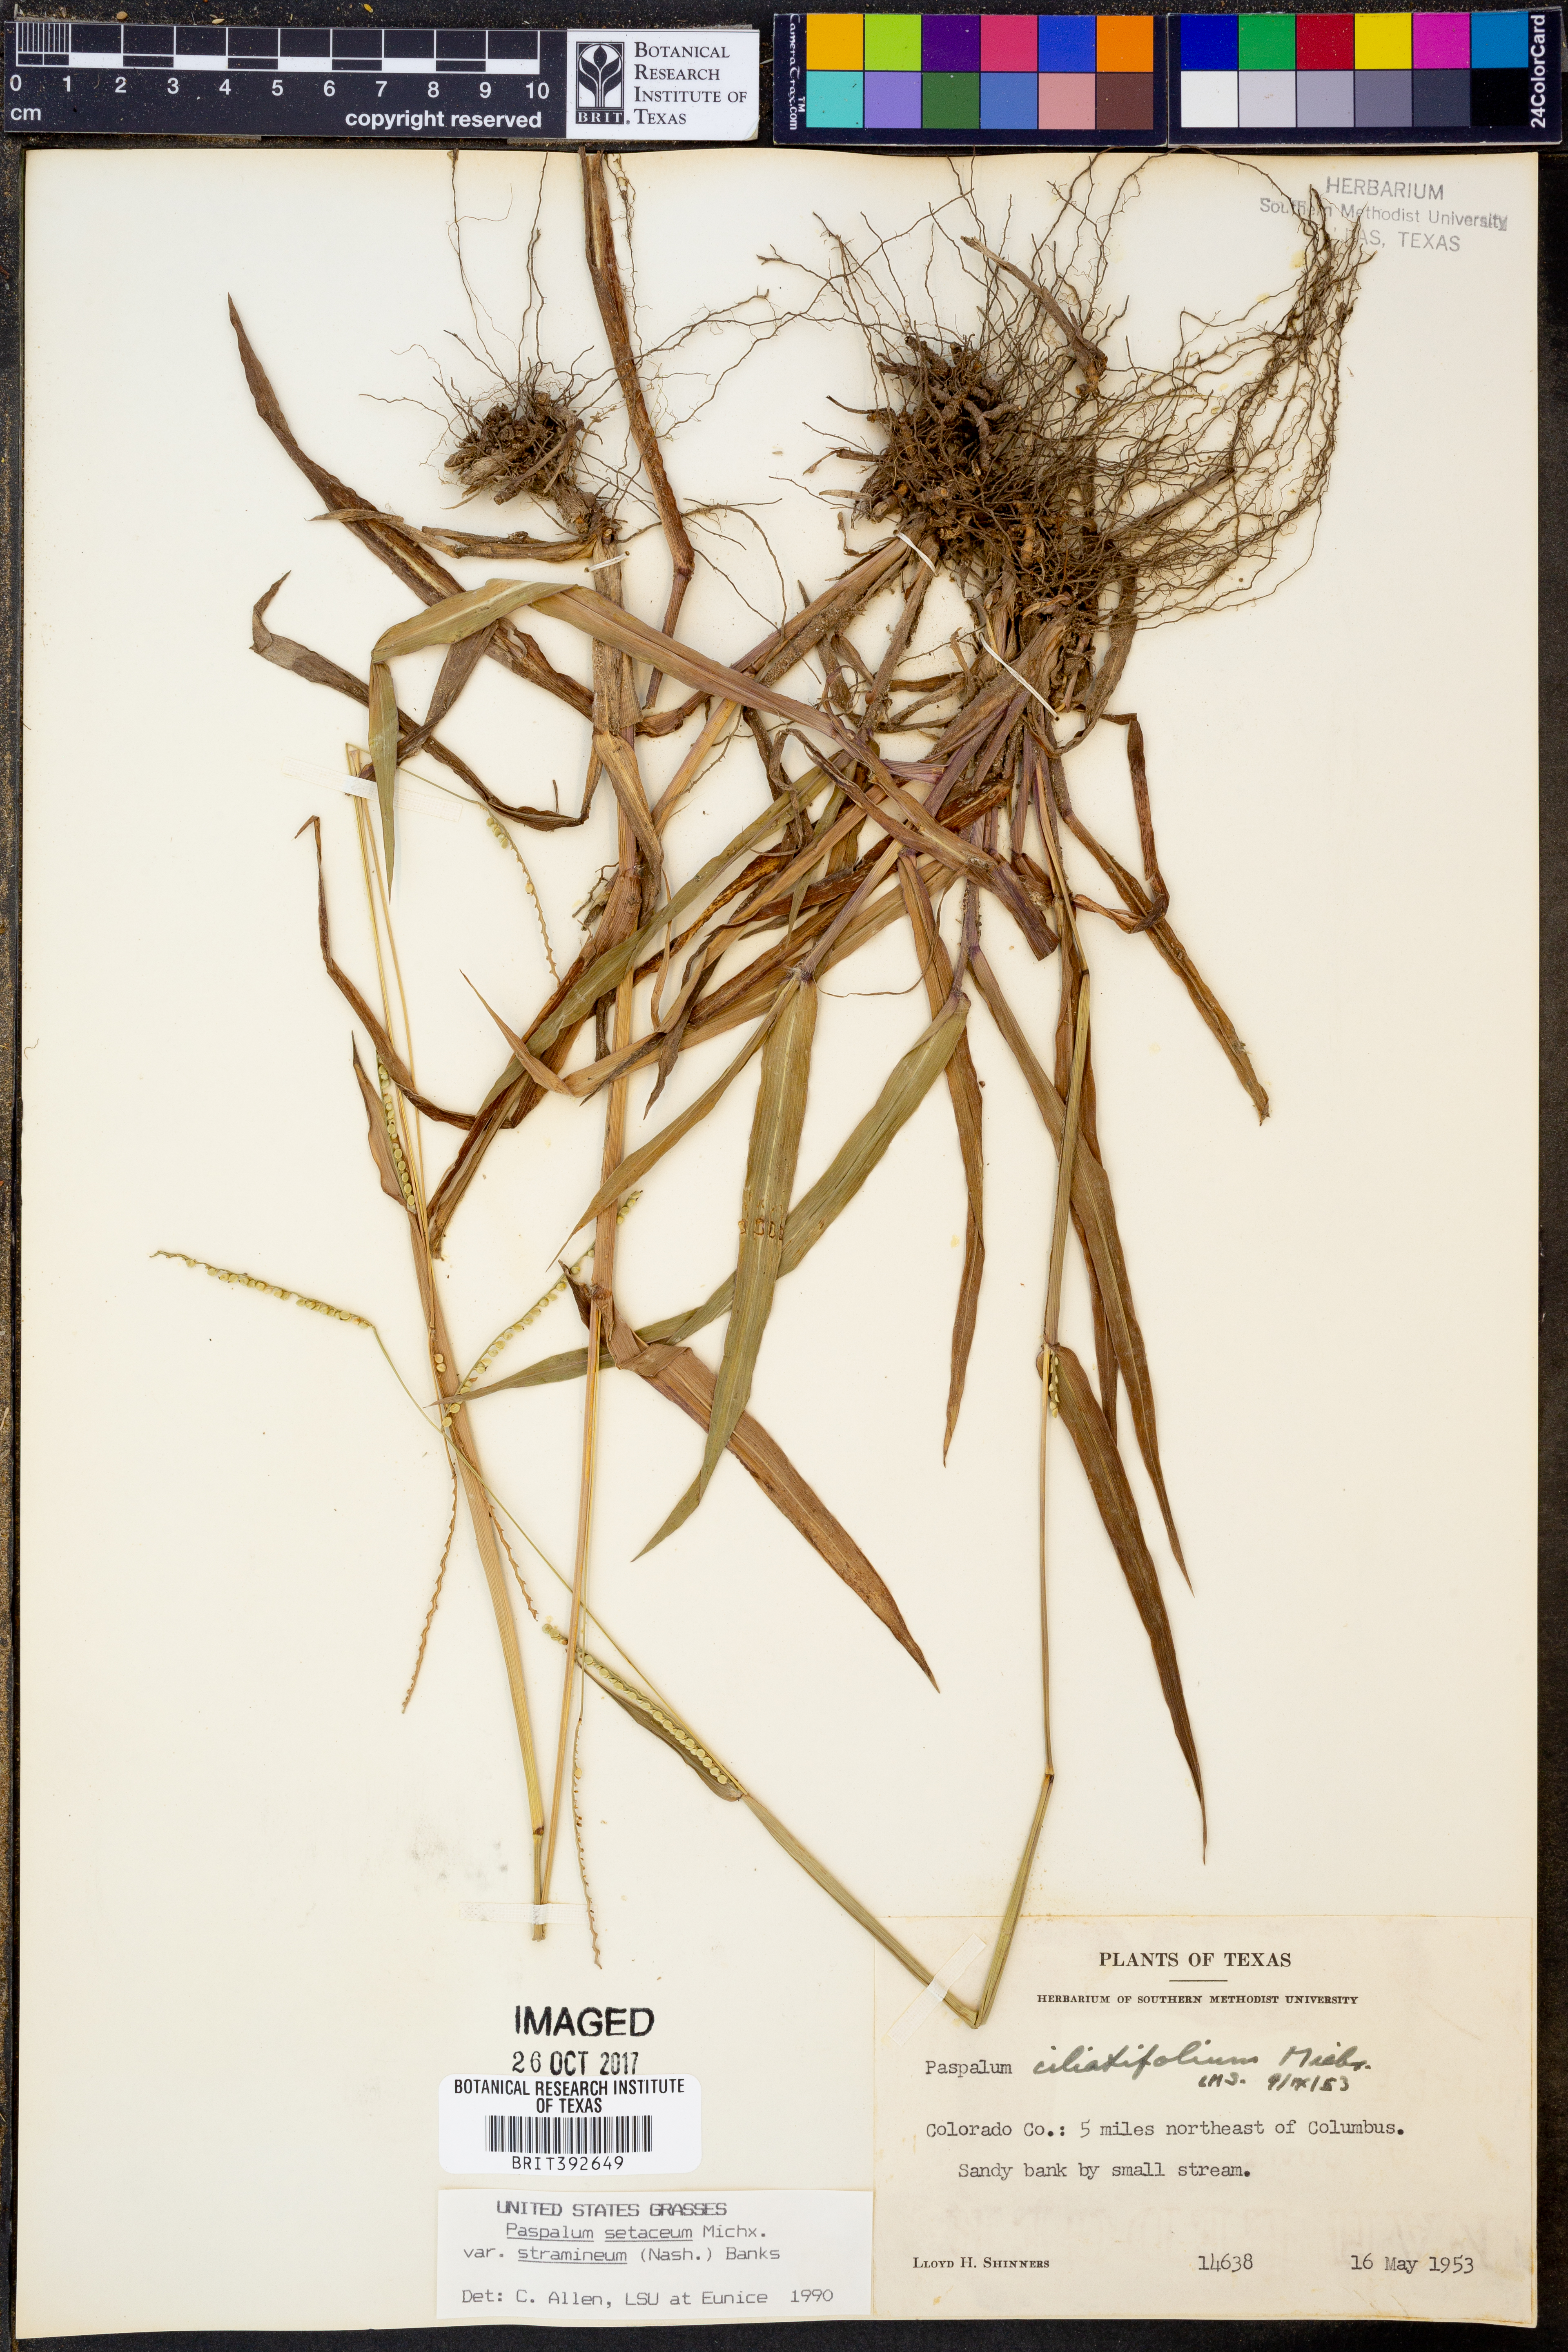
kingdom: Plantae
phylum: Tracheophyta
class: Liliopsida
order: Poales
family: Poaceae
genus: Paspalum
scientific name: Paspalum setaceum
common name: Slender paspalum
